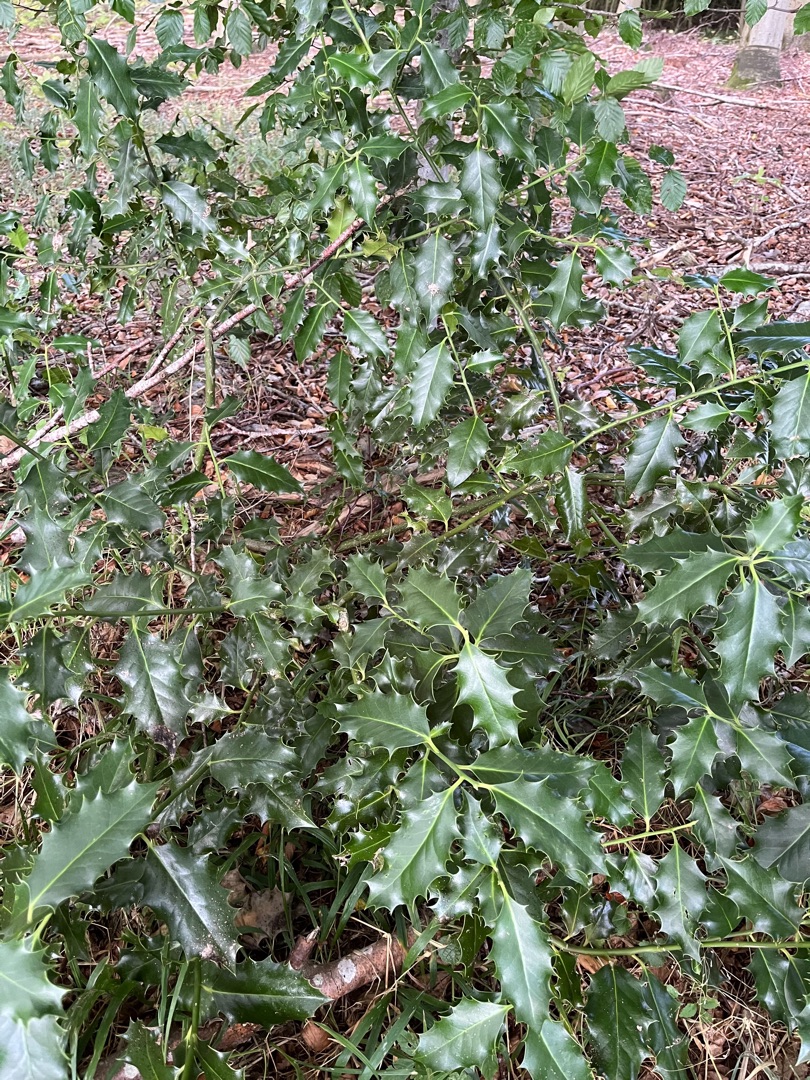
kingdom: Plantae
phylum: Tracheophyta
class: Magnoliopsida
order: Aquifoliales
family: Aquifoliaceae
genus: Ilex
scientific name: Ilex aquifolium
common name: Kristtorn
